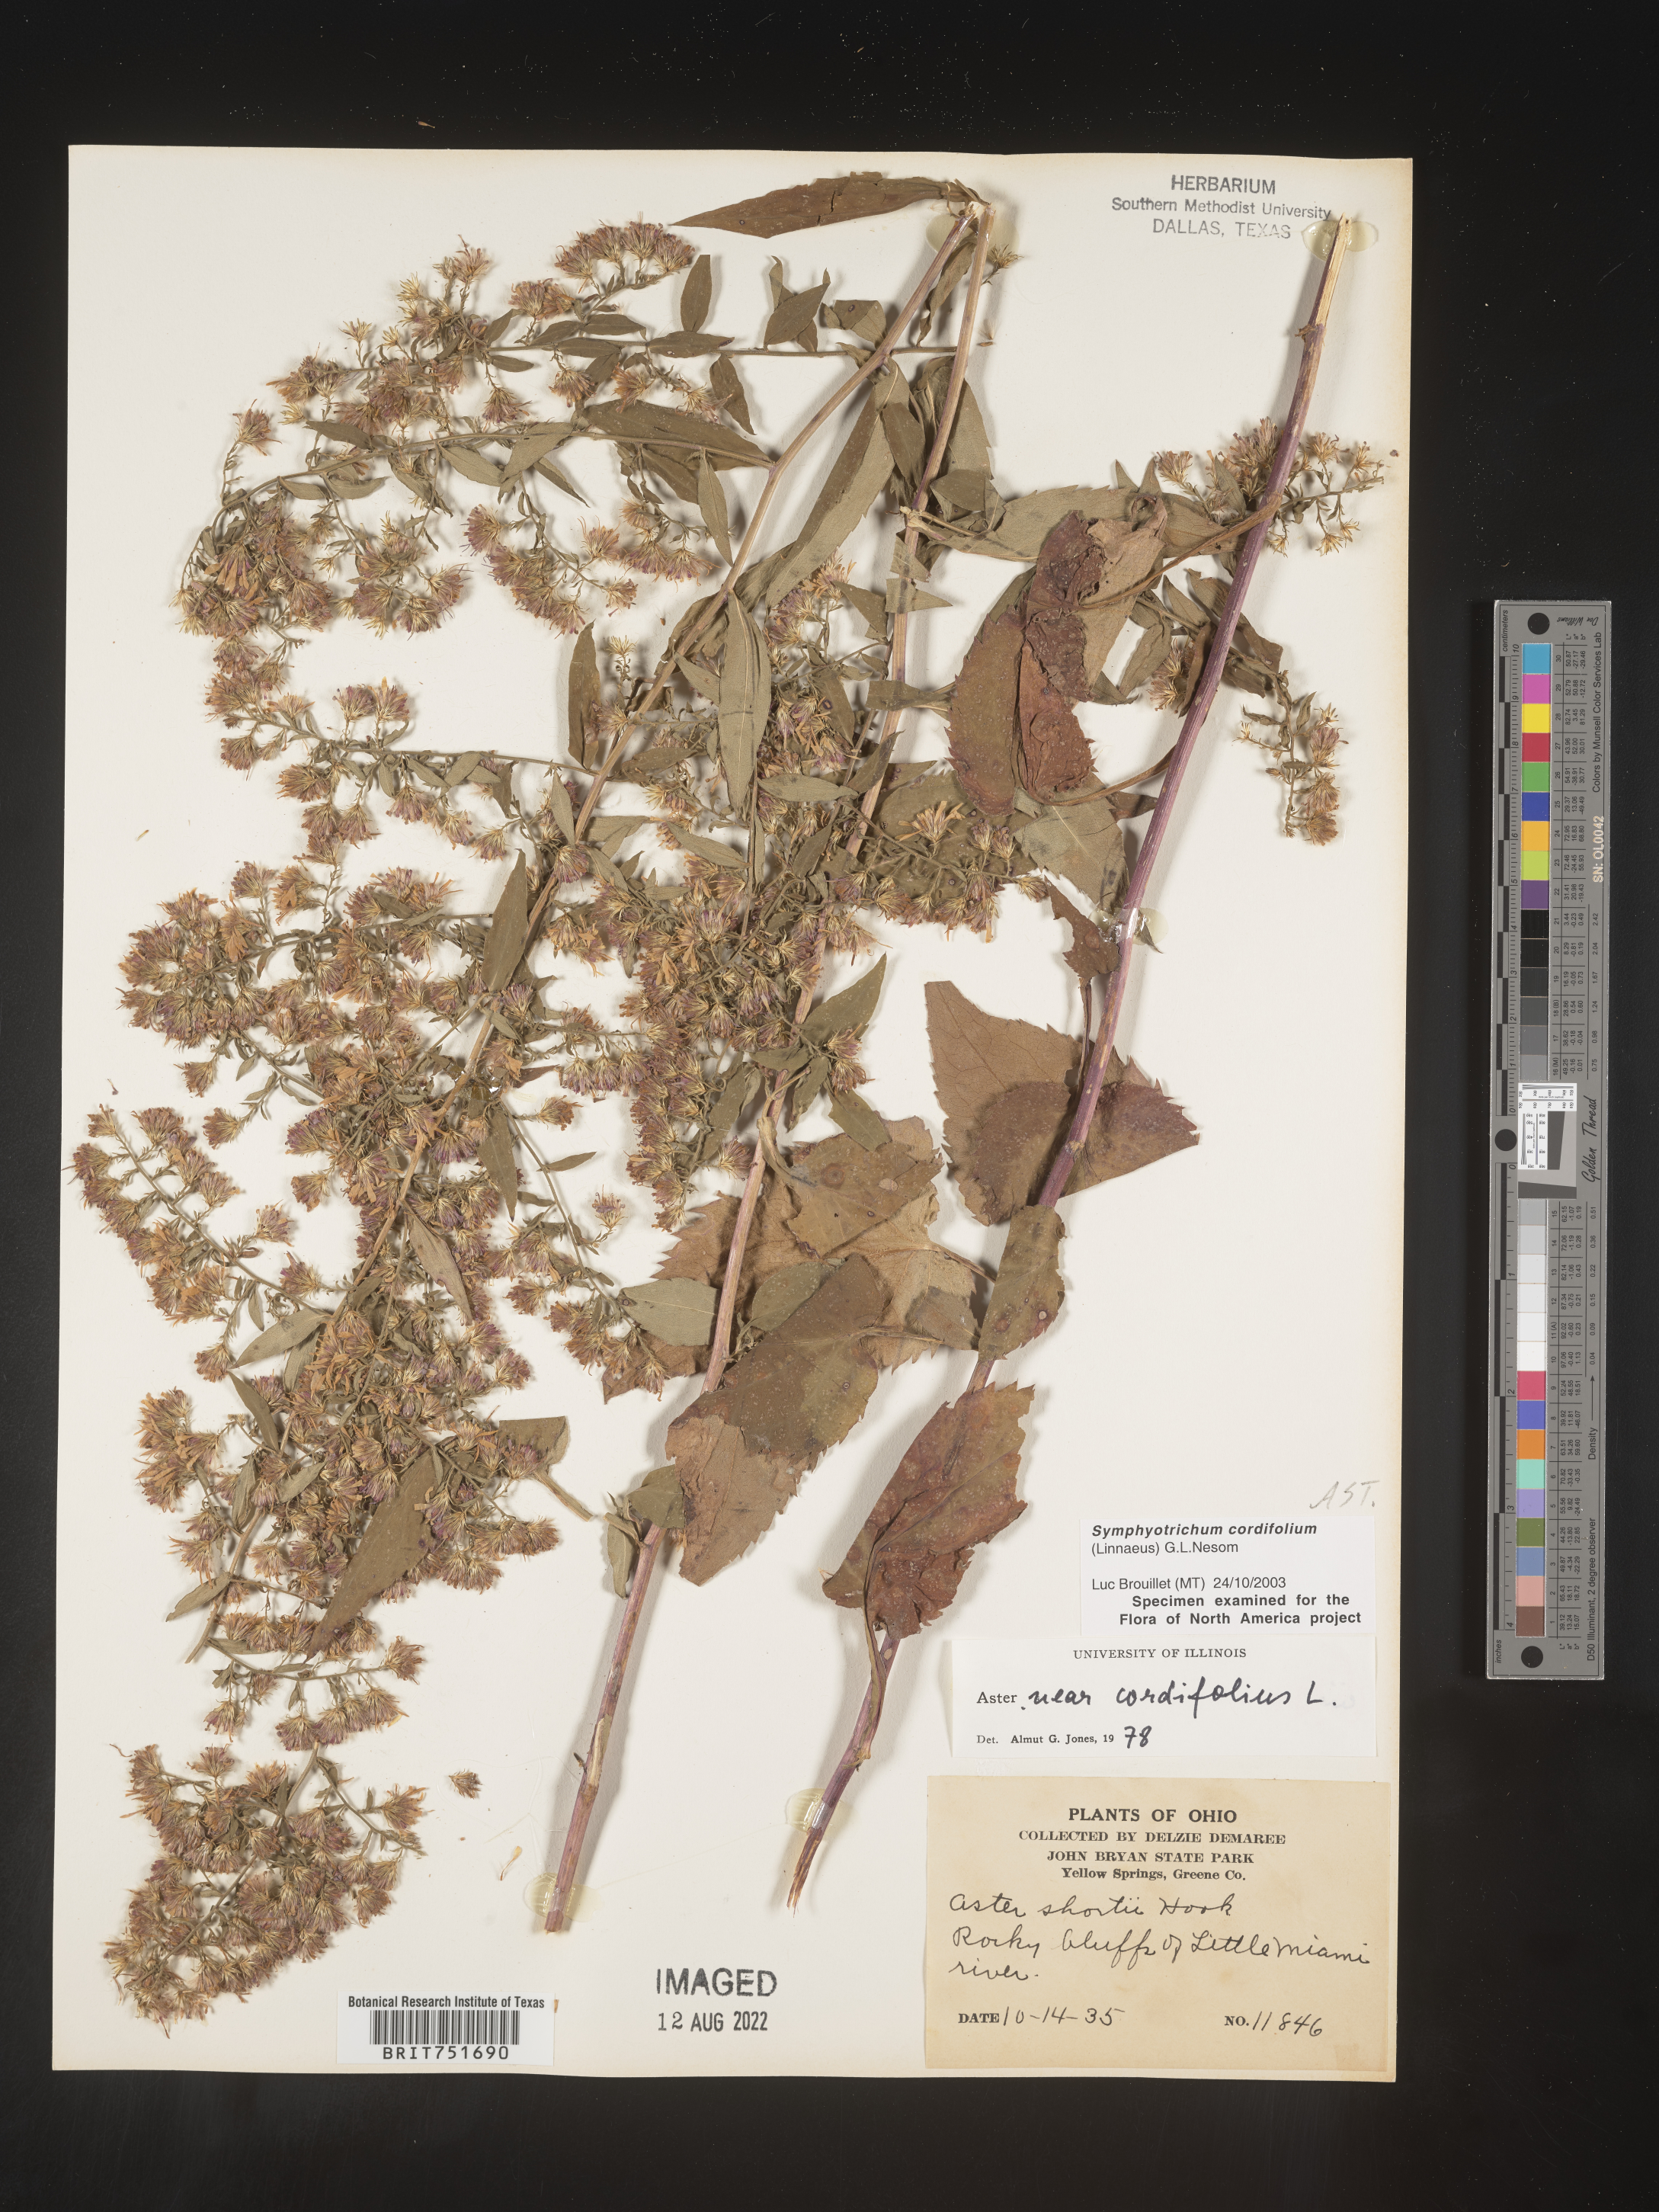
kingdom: Plantae
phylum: Tracheophyta
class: Magnoliopsida
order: Asterales
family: Asteraceae
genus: Symphyotrichum
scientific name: Symphyotrichum cordifolium
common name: Beeweed
